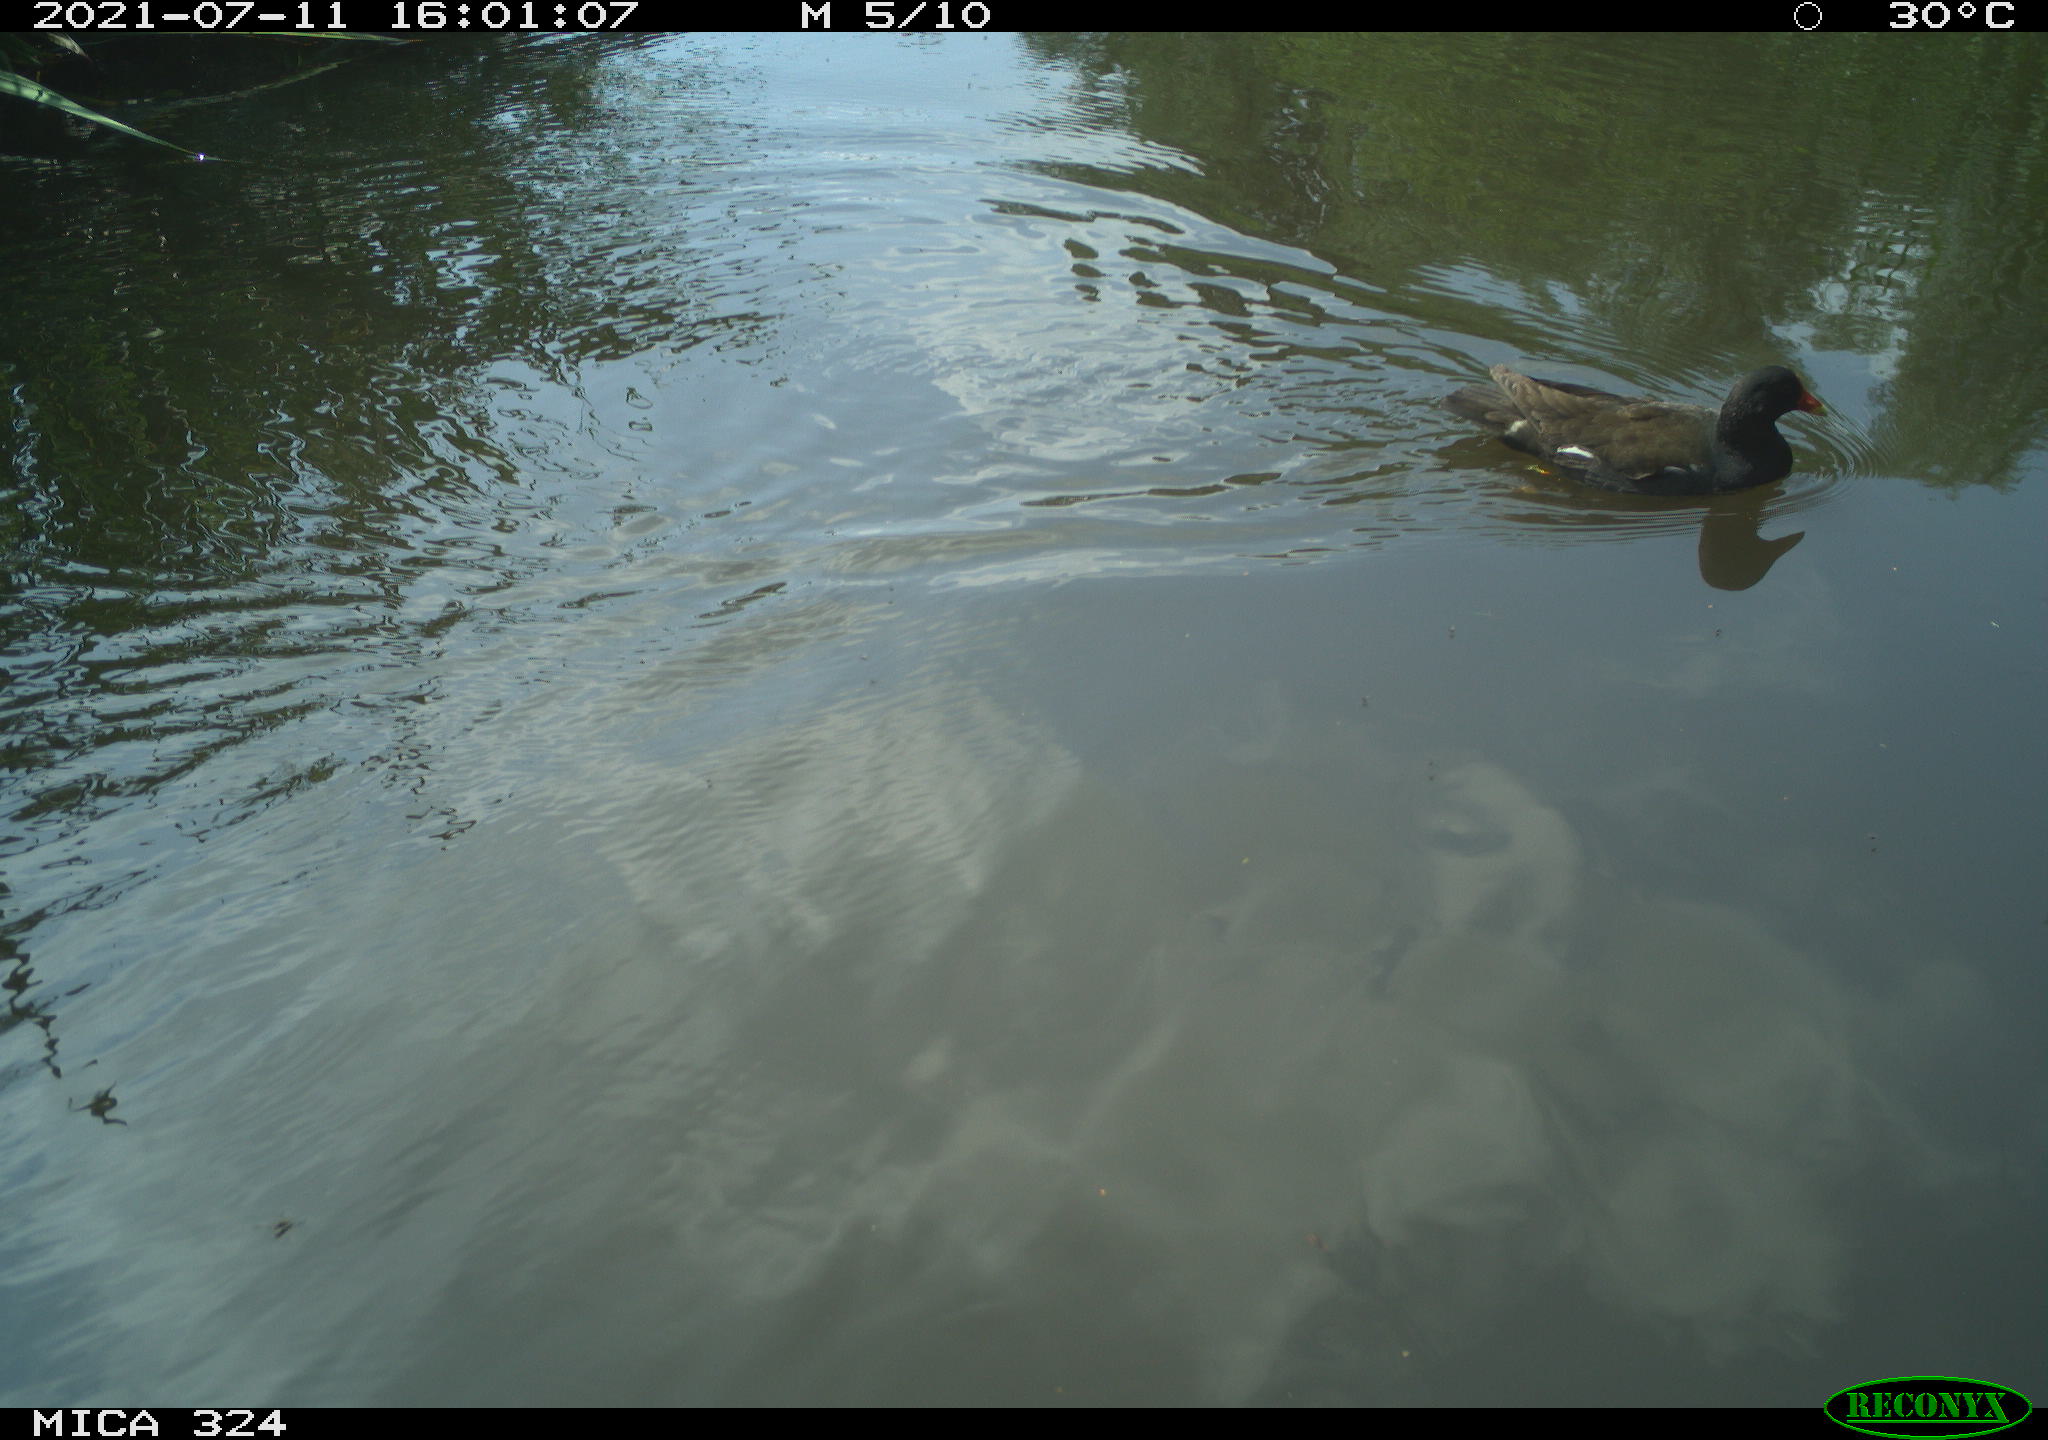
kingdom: Animalia
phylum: Chordata
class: Aves
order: Gruiformes
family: Rallidae
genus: Gallinula
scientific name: Gallinula chloropus
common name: Common moorhen
